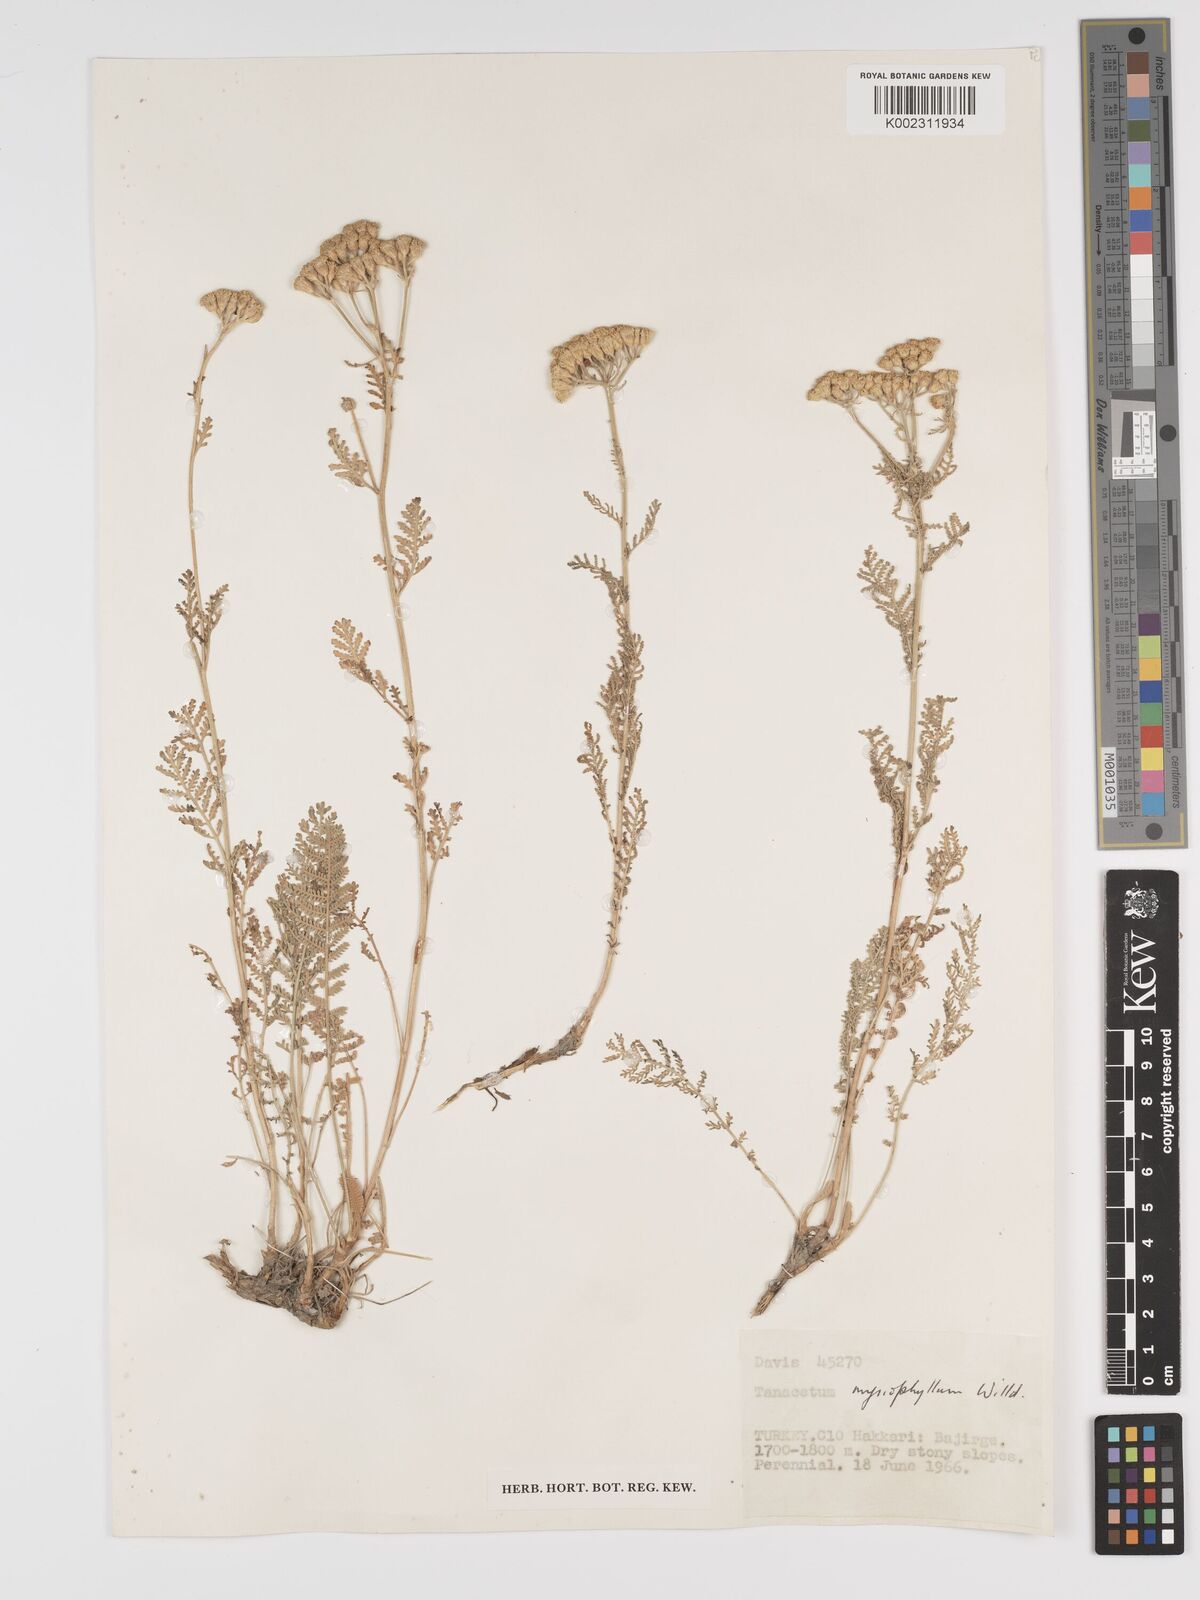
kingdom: Plantae
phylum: Tracheophyta
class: Magnoliopsida
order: Asterales
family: Asteraceae
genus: Tanacetum
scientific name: Tanacetum polycephalum
